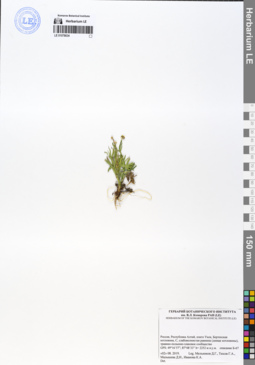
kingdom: Plantae
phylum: Tracheophyta
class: Magnoliopsida
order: Ranunculales
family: Ranunculaceae
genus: Ranunculus
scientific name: Ranunculus pedatifidus
